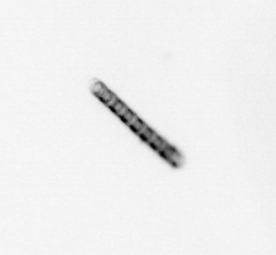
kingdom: Chromista
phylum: Ochrophyta
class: Bacillariophyceae
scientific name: Bacillariophyceae
